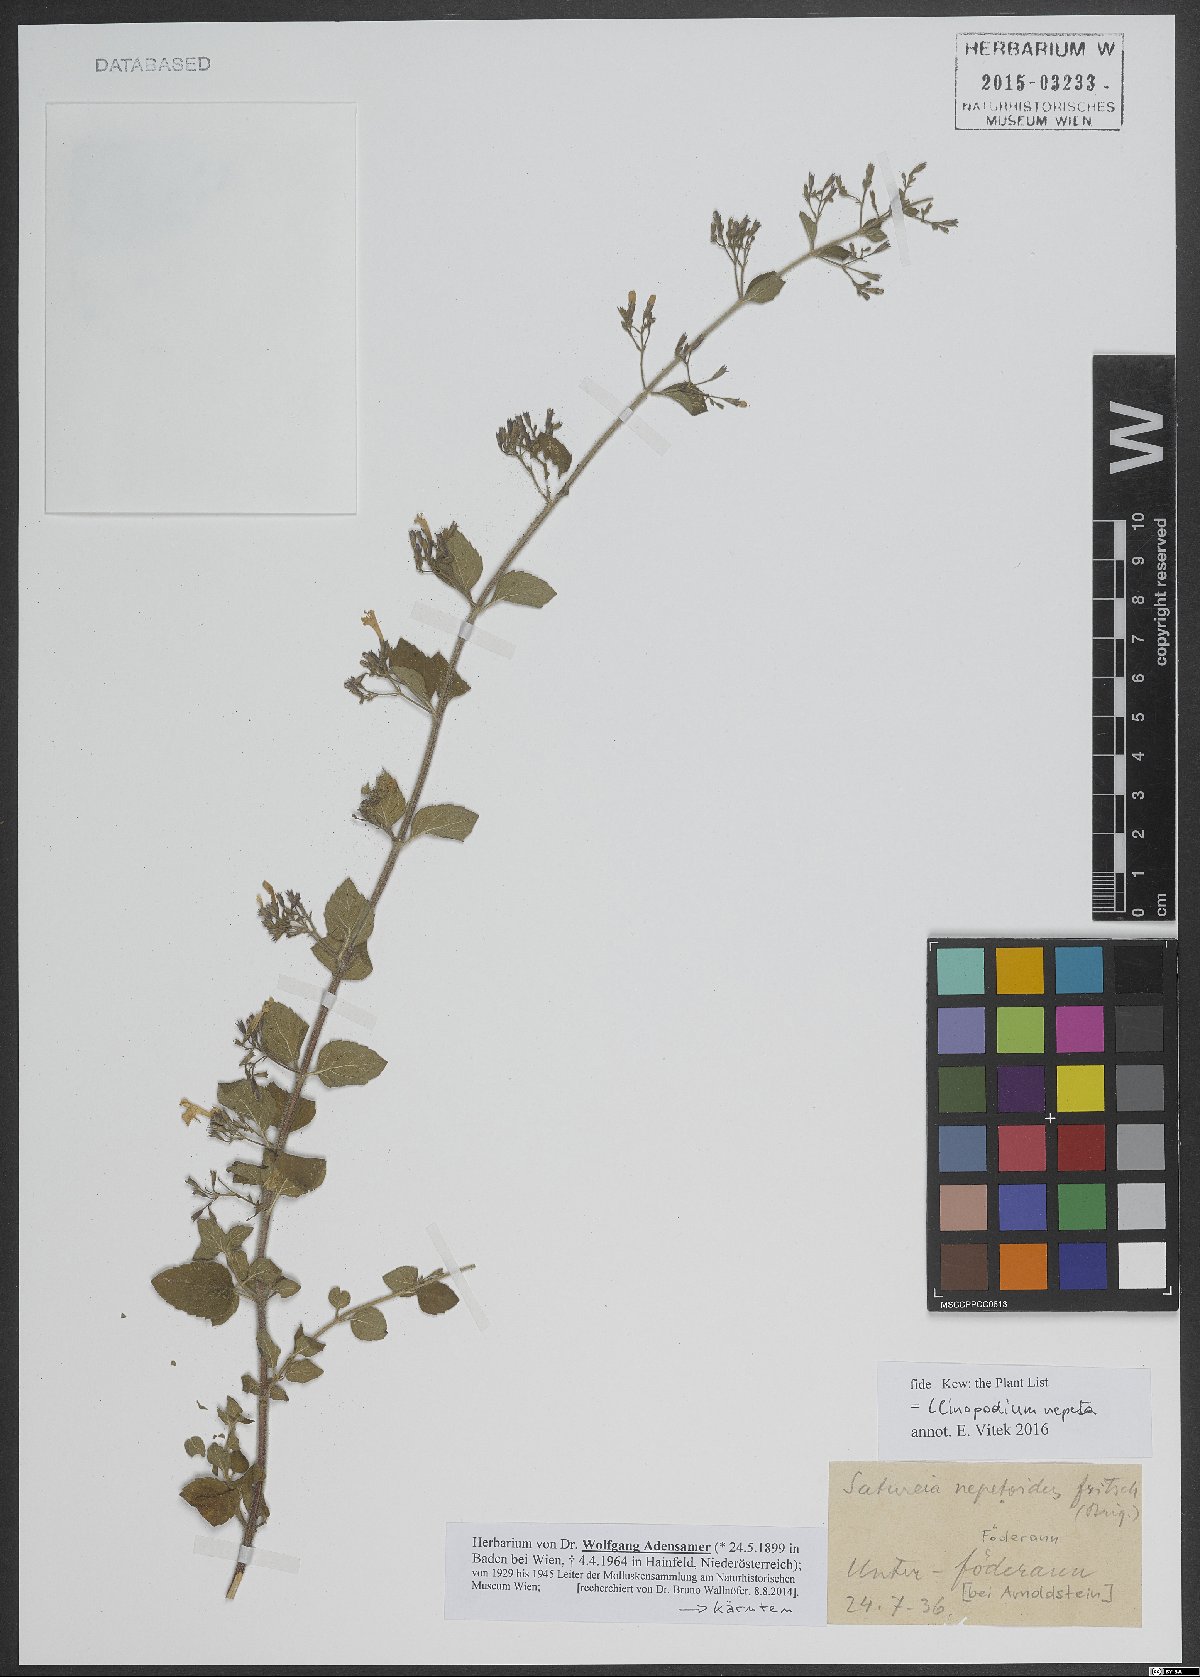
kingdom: Plantae
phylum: Tracheophyta
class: Magnoliopsida
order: Lamiales
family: Lamiaceae
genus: Clinopodium
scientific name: Clinopodium nepeta
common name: Lesser calamint
